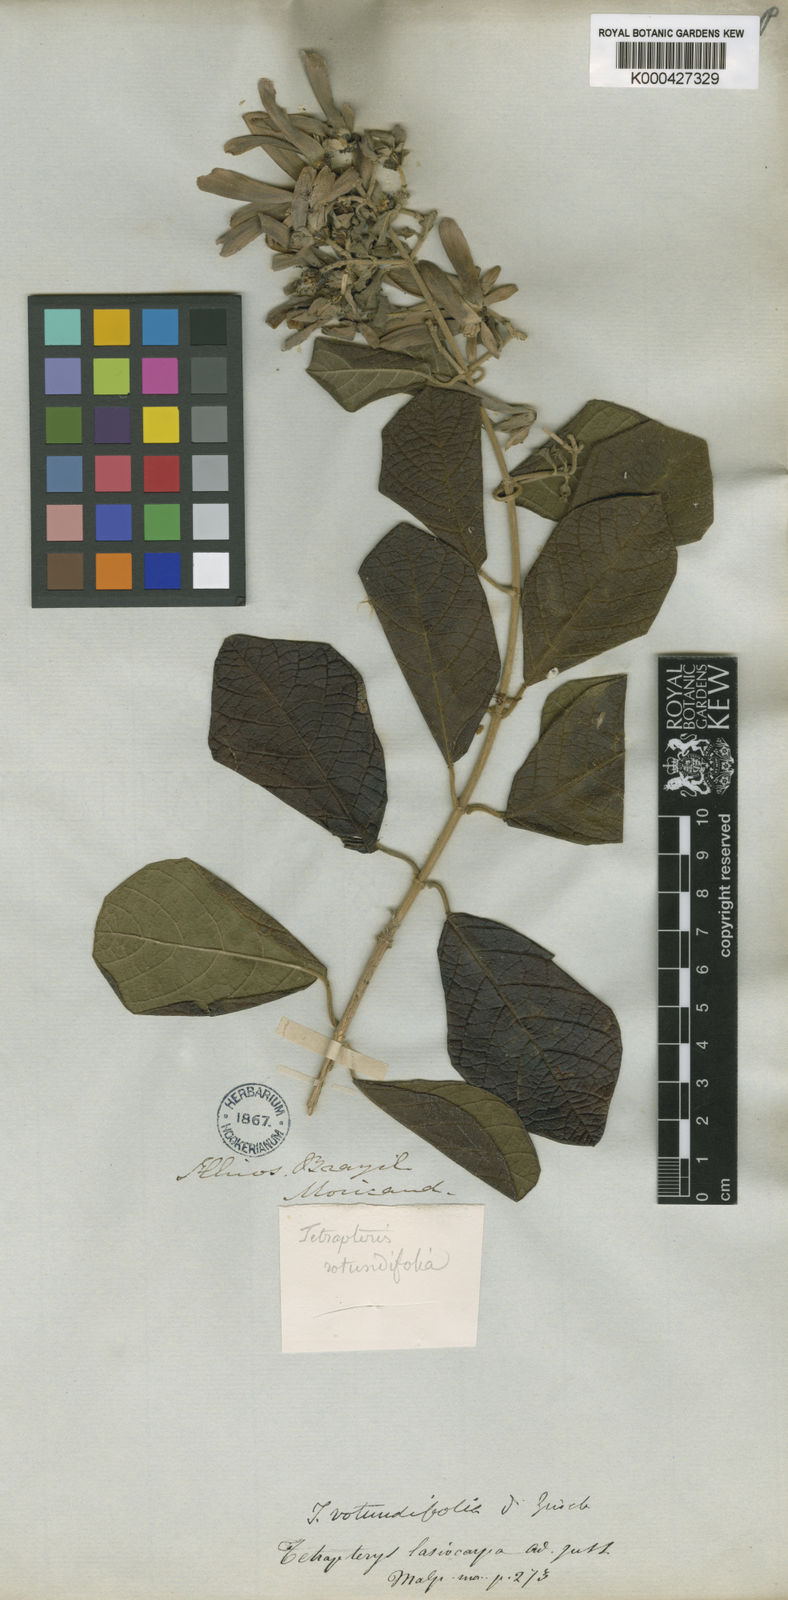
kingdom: Plantae
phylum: Tracheophyta
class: Magnoliopsida
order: Malpighiales
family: Malpighiaceae
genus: Tetrapterys
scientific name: Tetrapterys
